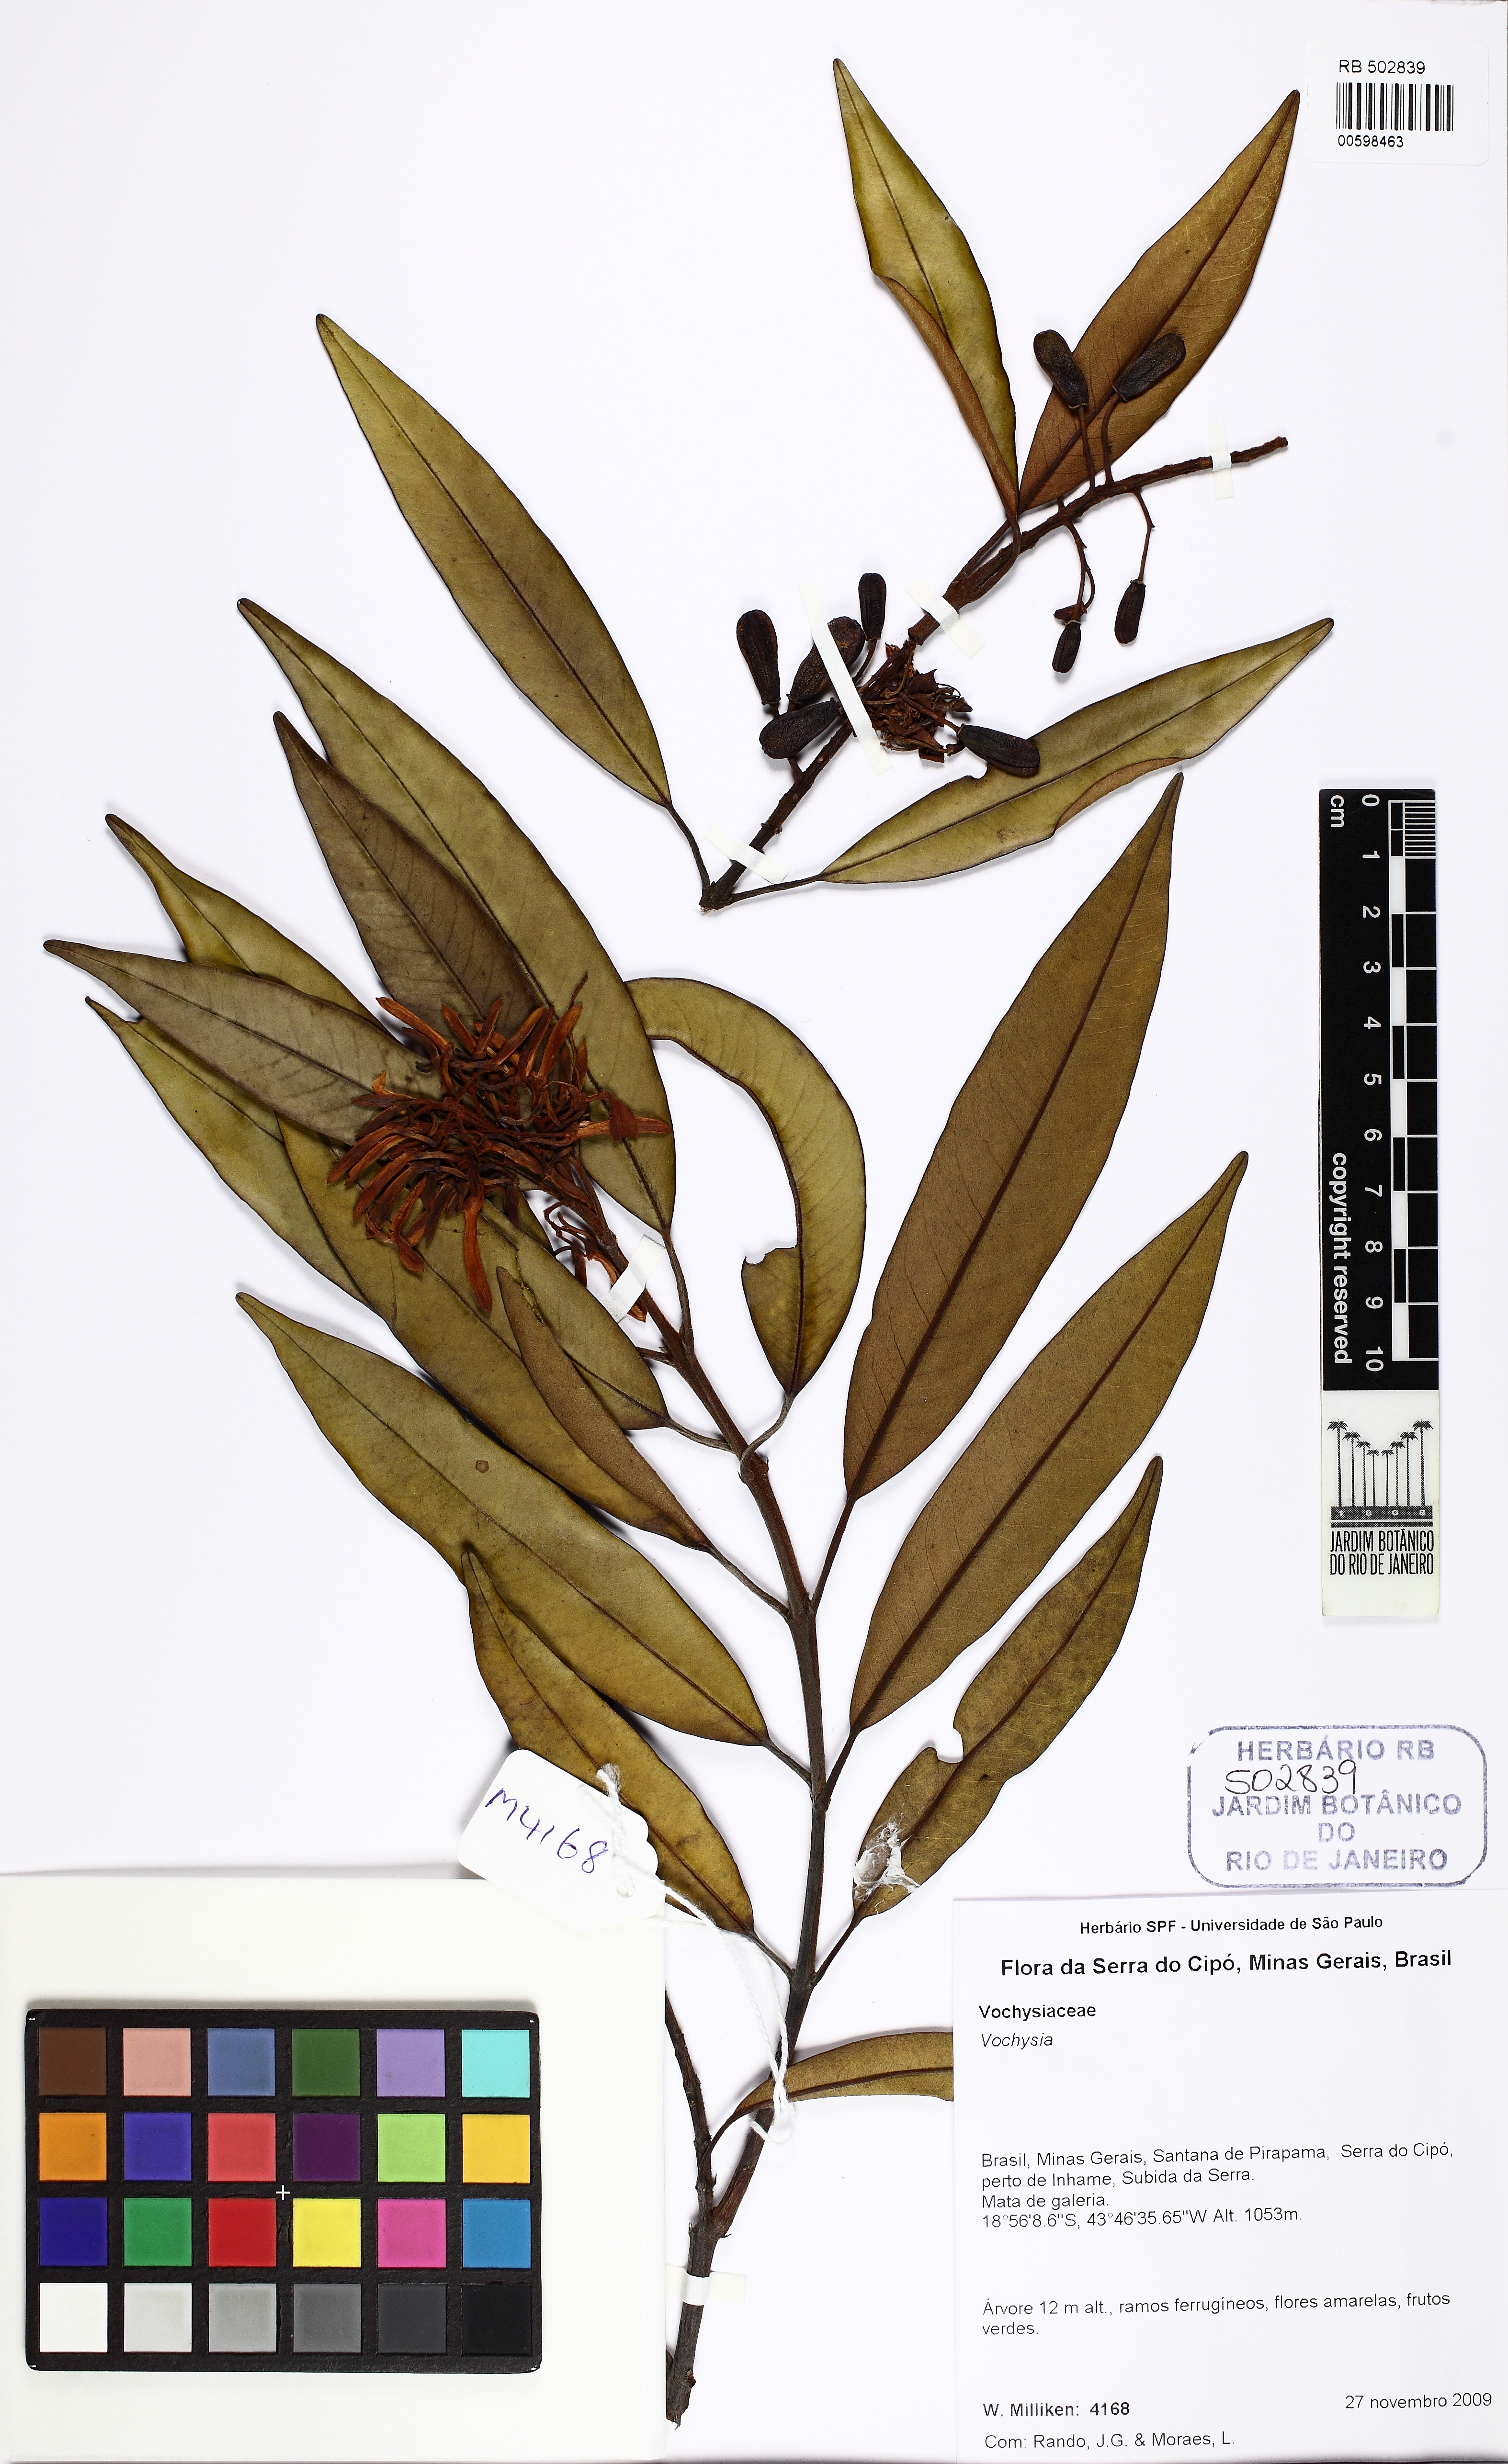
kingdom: Plantae
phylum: Tracheophyta
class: Magnoliopsida
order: Myrtales
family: Vochysiaceae
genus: Vochysia
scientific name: Vochysia
